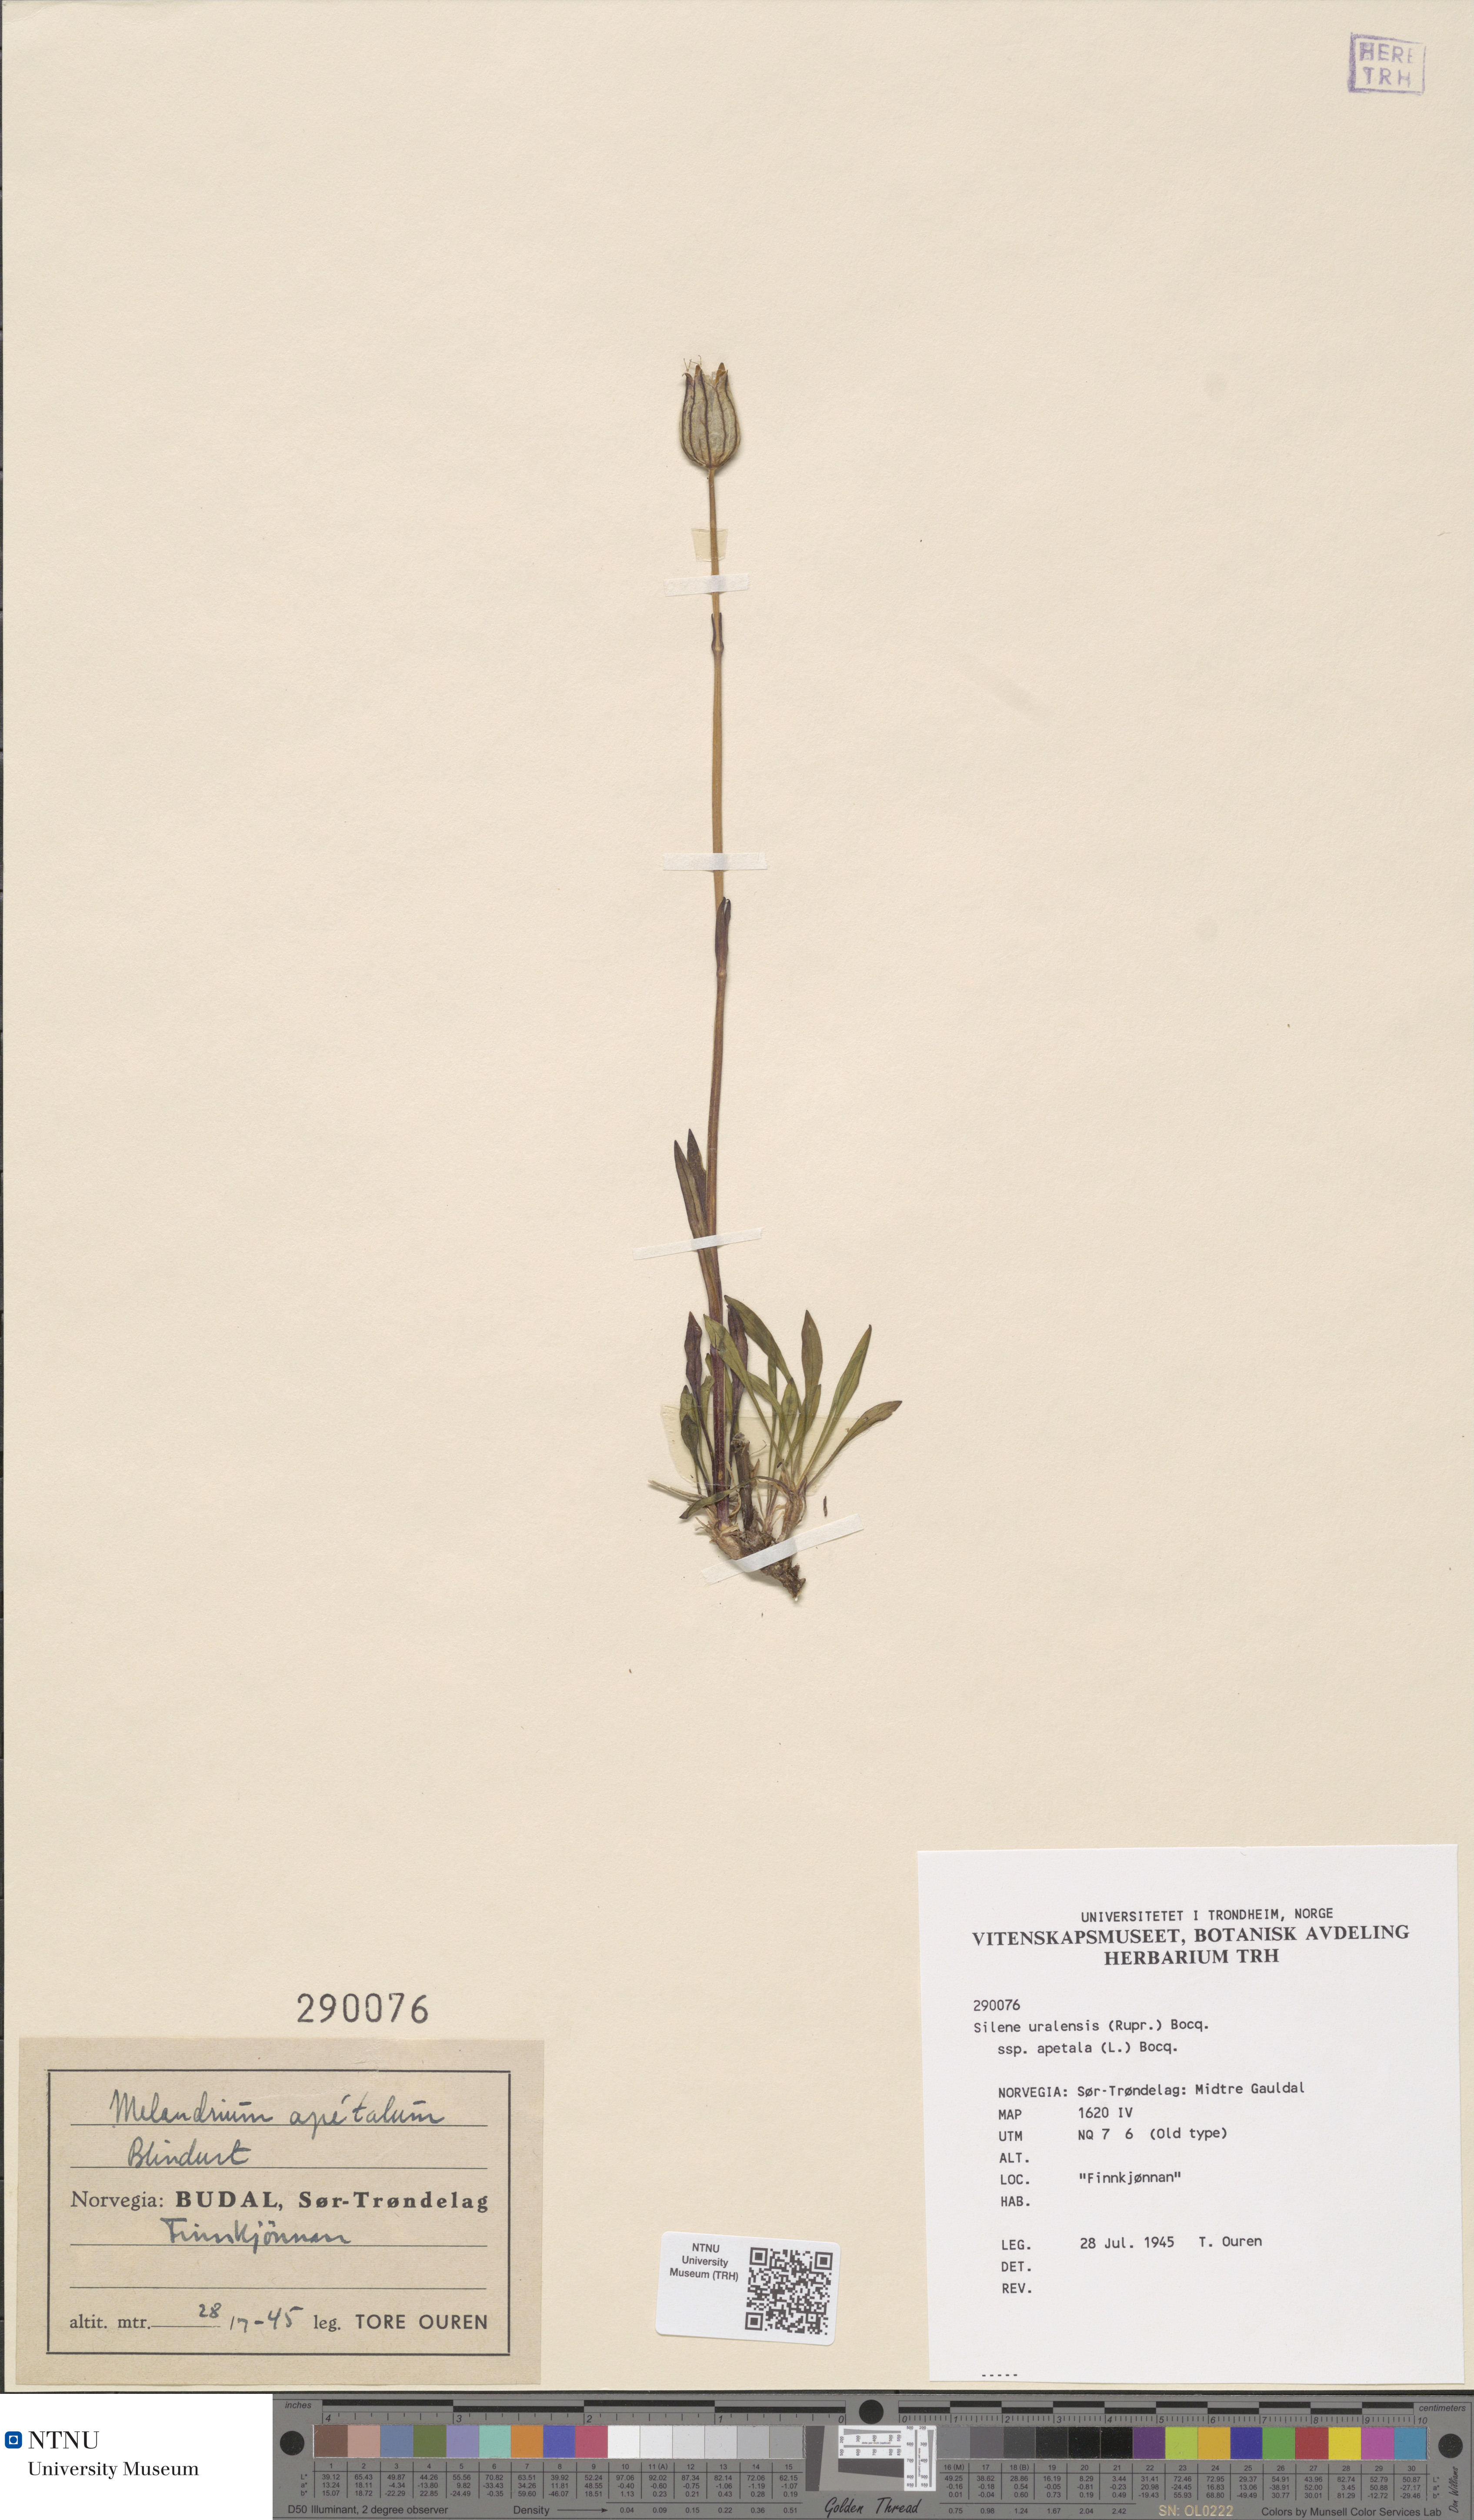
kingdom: Plantae
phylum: Tracheophyta
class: Magnoliopsida
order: Caryophyllales
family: Caryophyllaceae
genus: Silene
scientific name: Silene wahlbergella
